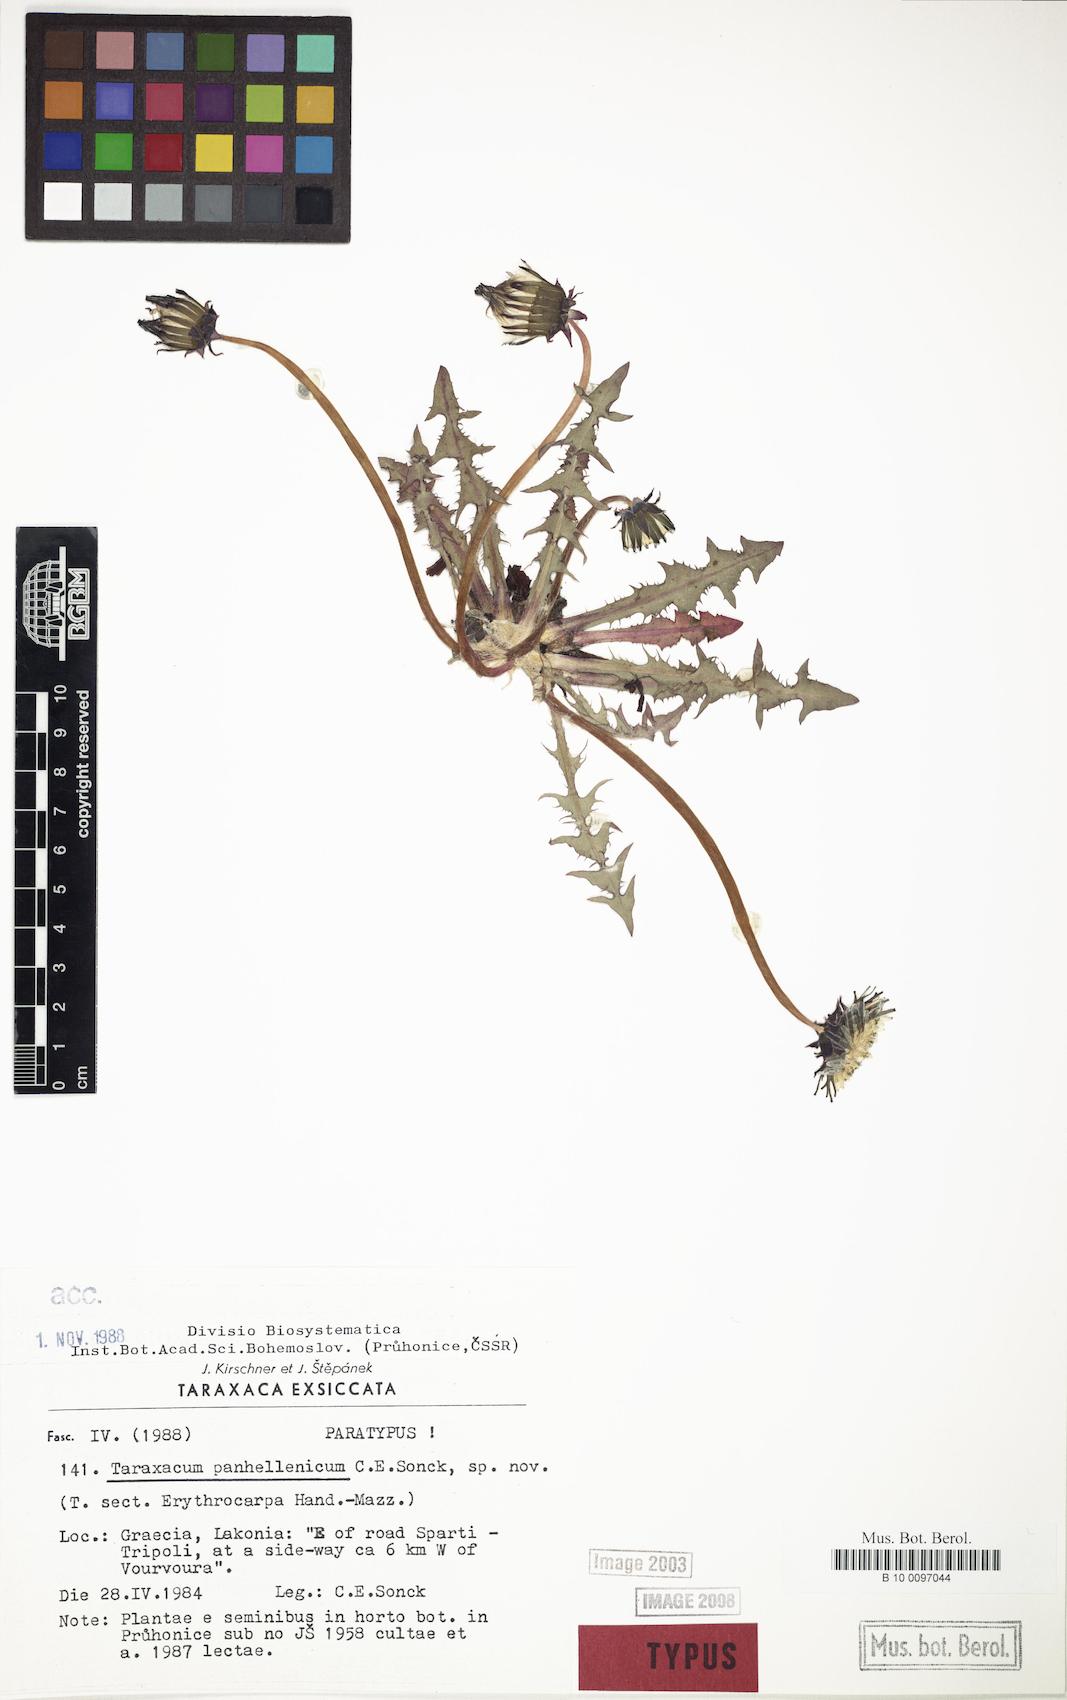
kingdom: Plantae
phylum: Tracheophyta
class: Magnoliopsida
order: Asterales
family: Asteraceae
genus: Taraxacum
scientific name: Taraxacum panhellenicum
